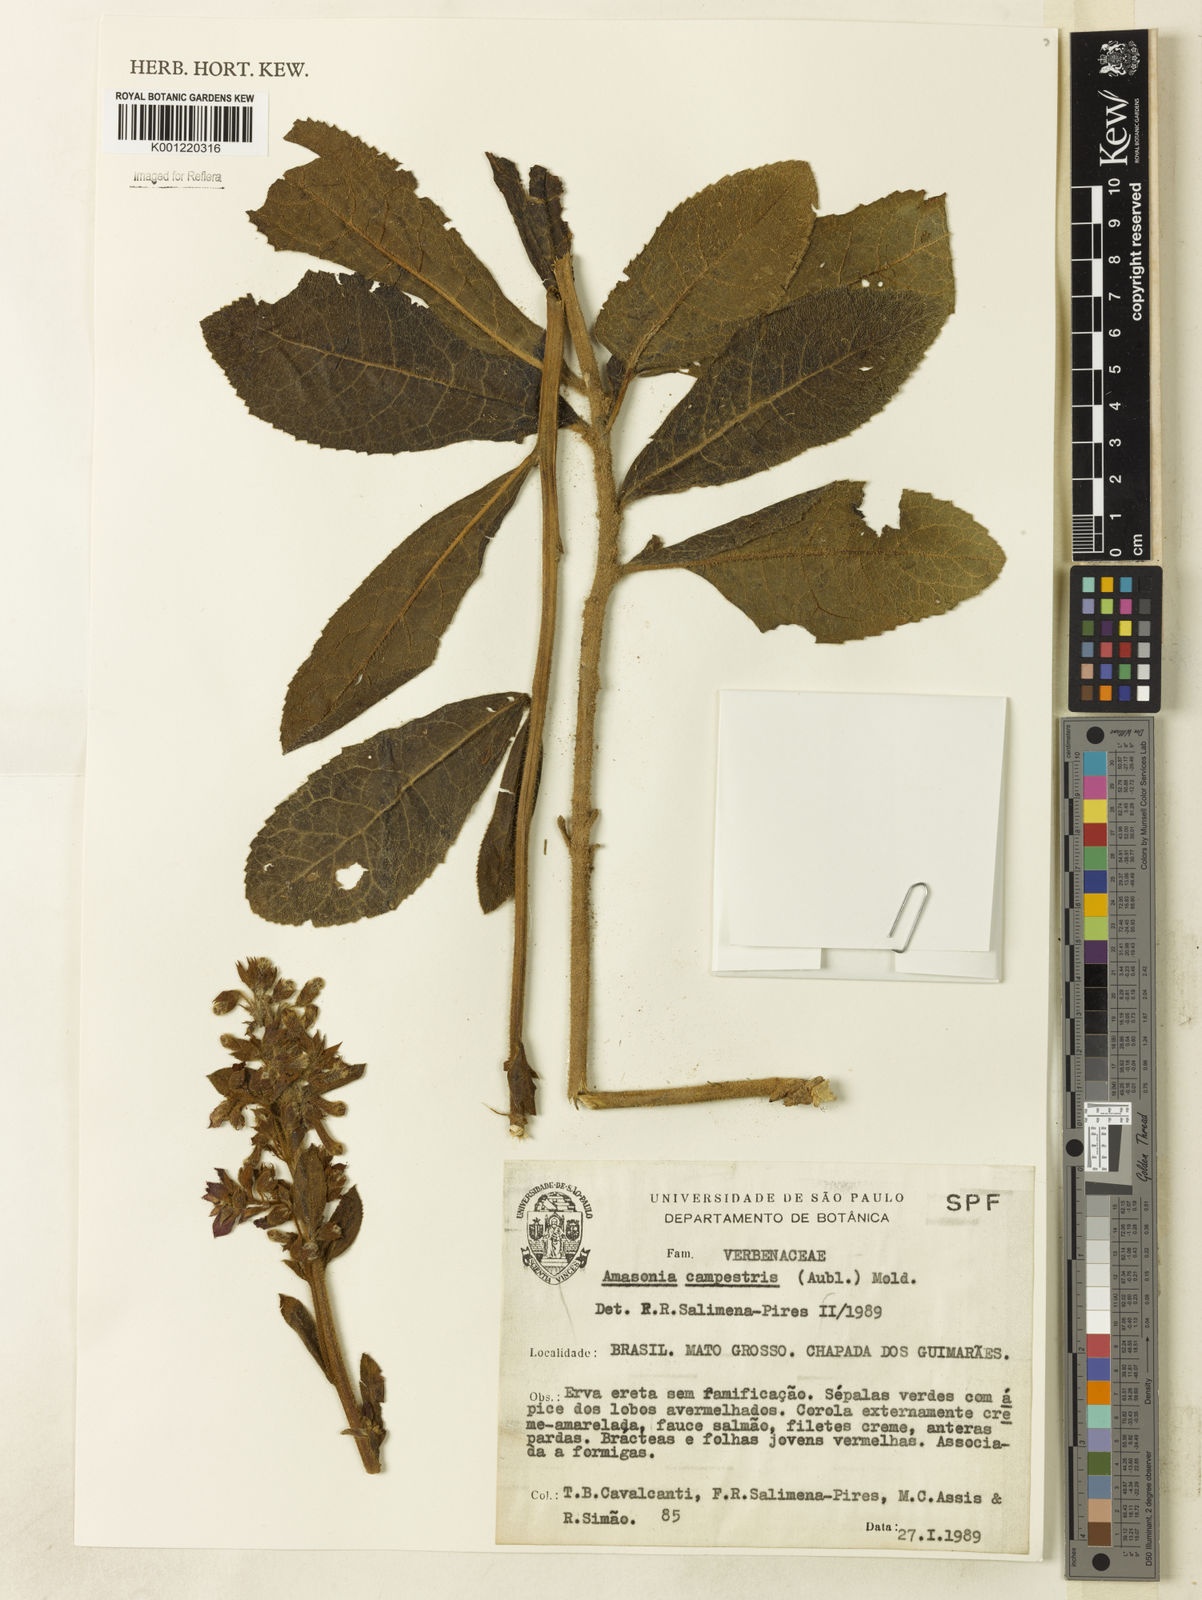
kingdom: Plantae
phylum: Tracheophyta
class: Magnoliopsida
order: Lamiales
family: Lamiaceae
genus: Amasonia
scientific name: Amasonia campestris
